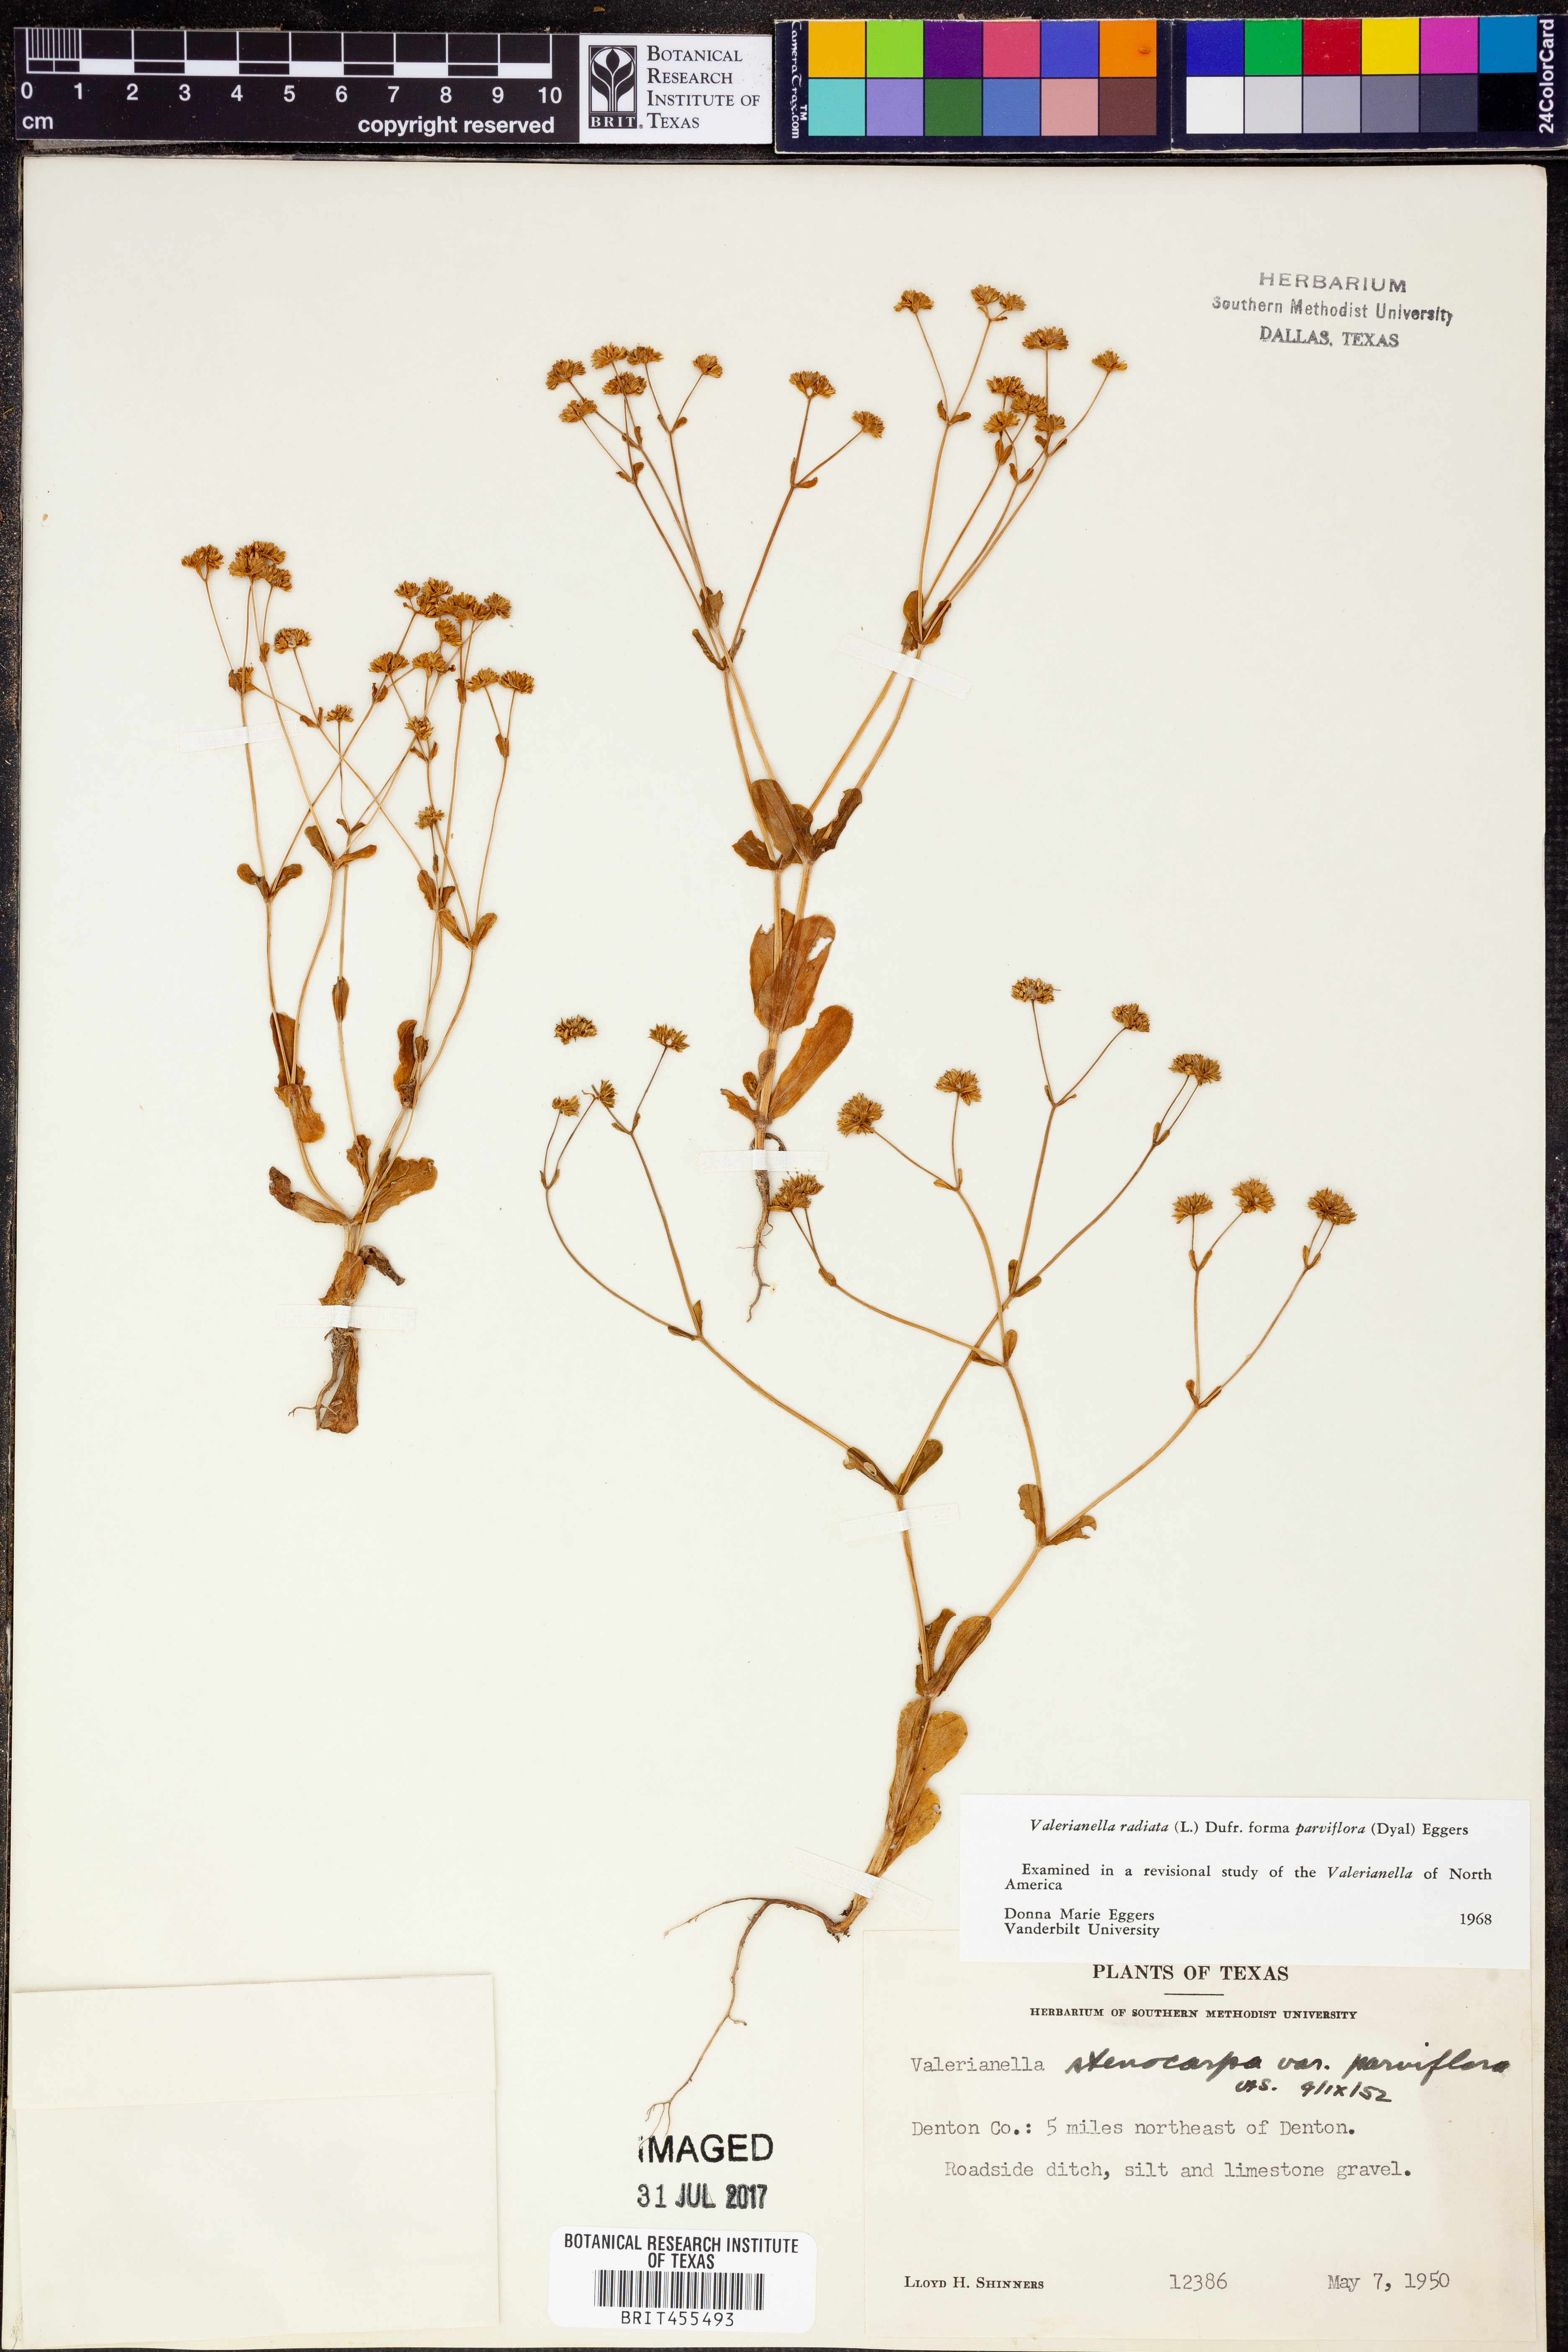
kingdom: Plantae
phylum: Tracheophyta
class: Magnoliopsida
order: Dipsacales
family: Caprifoliaceae
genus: Valerianella
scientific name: Valerianella radiata
